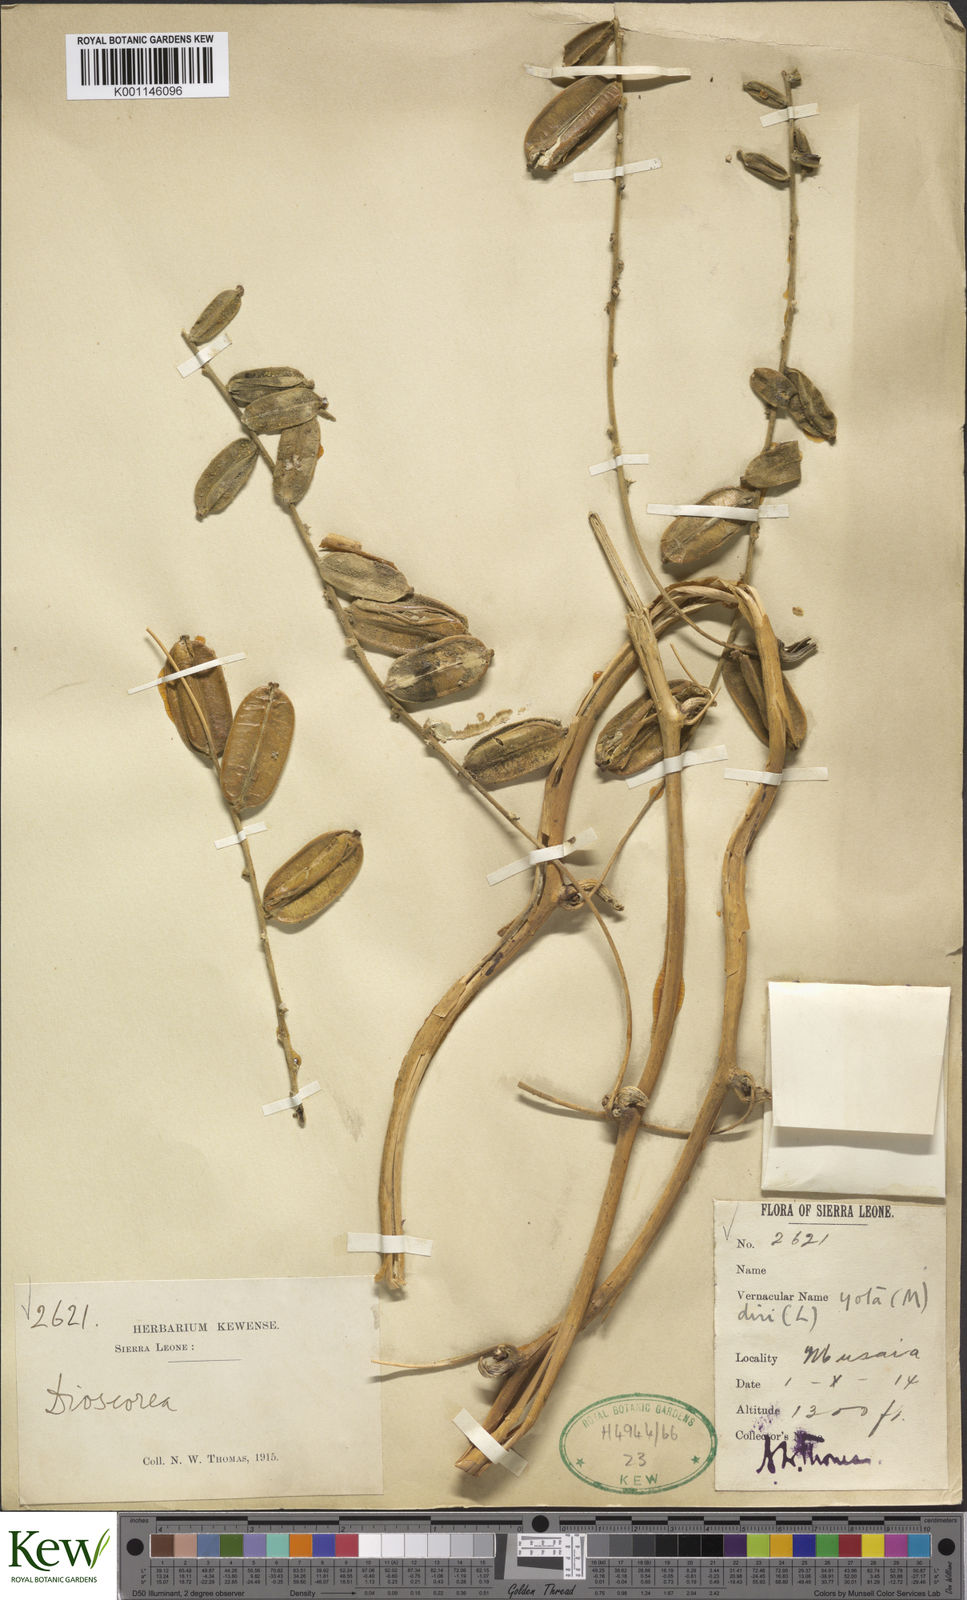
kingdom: Plantae
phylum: Tracheophyta
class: Liliopsida
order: Dioscoreales
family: Dioscoreaceae
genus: Dioscorea
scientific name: Dioscorea
